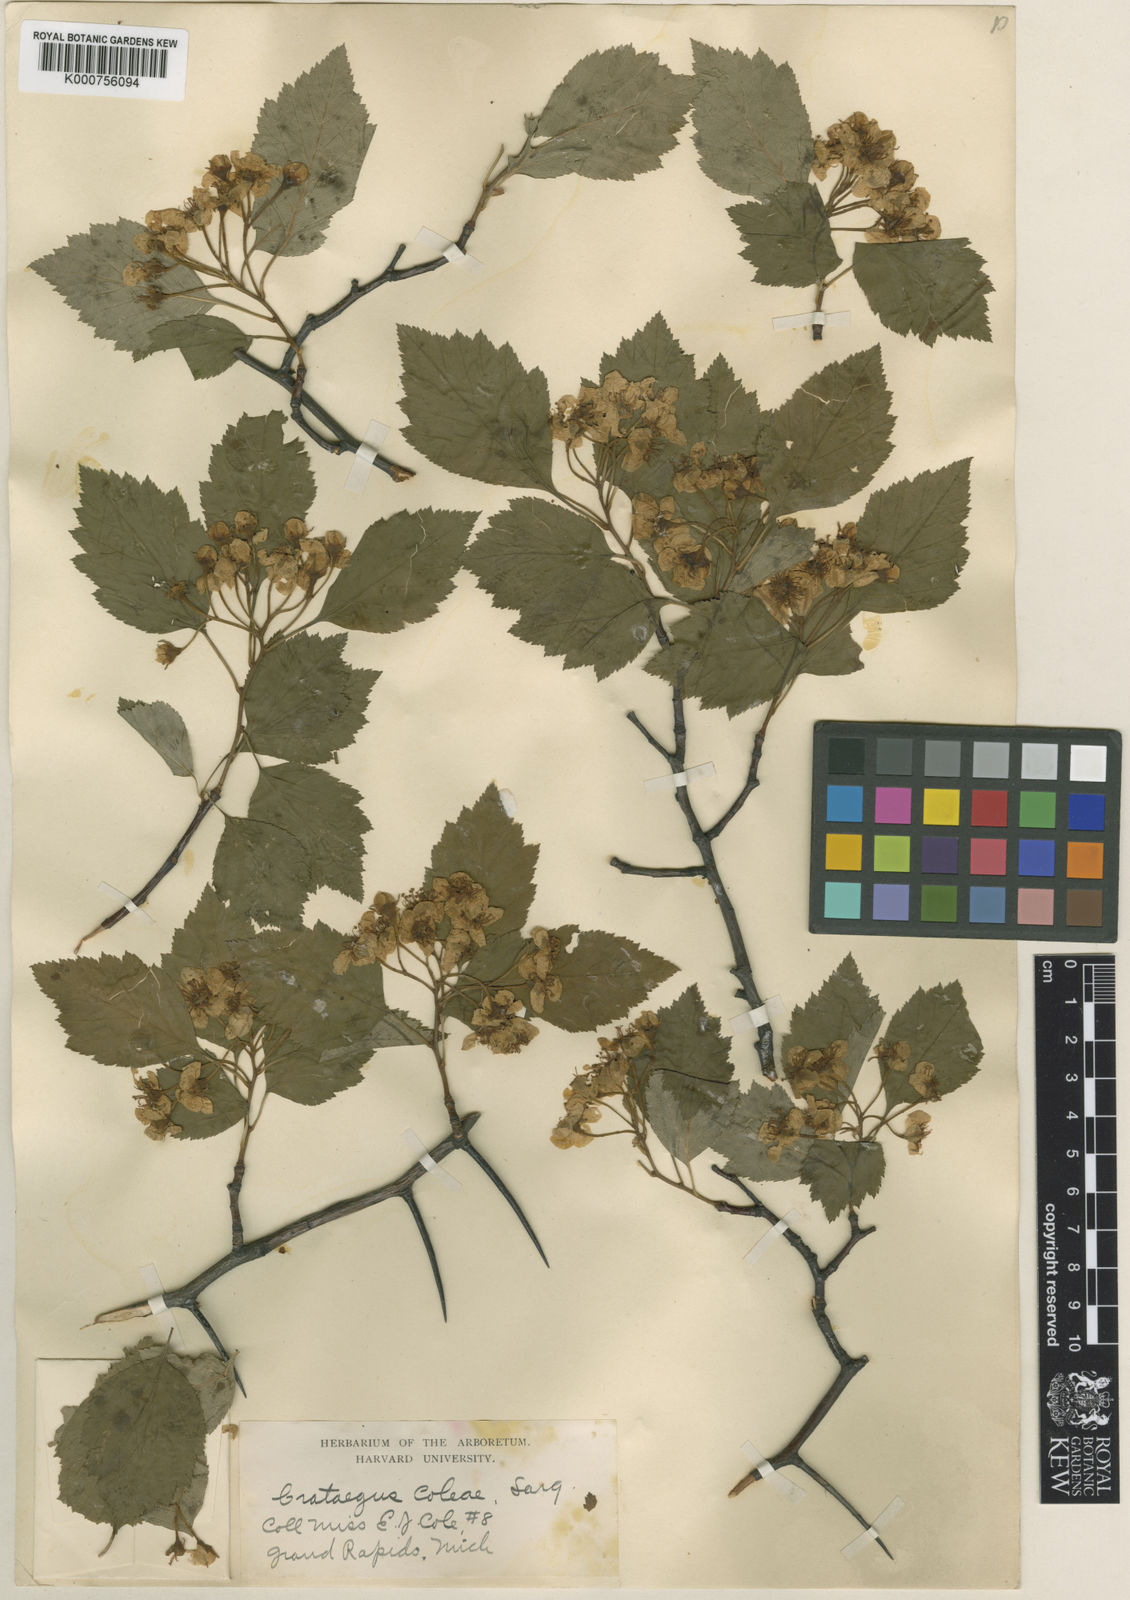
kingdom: Plantae
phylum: Tracheophyta
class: Magnoliopsida
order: Rosales
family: Rosaceae
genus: Crataegus
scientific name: Crataegus coleae
